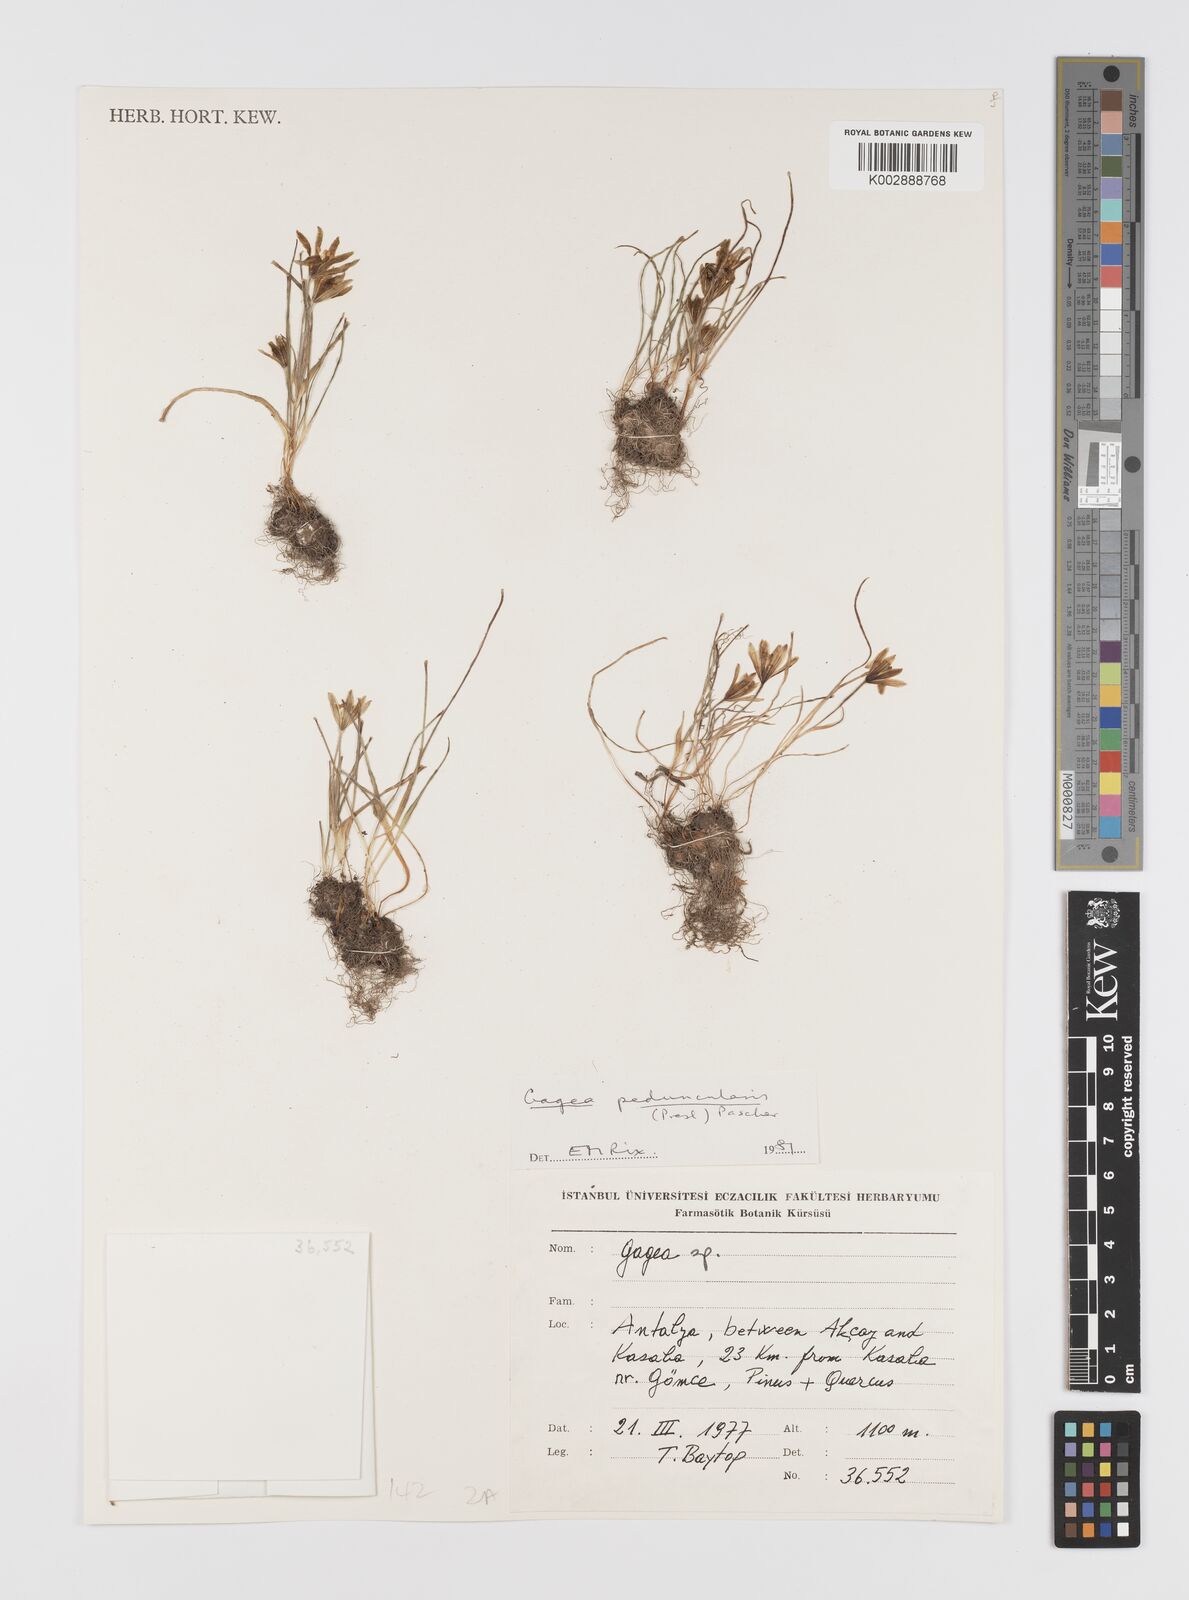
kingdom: Plantae
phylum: Tracheophyta
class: Liliopsida
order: Liliales
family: Liliaceae
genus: Gagea
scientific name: Gagea peduncularis
